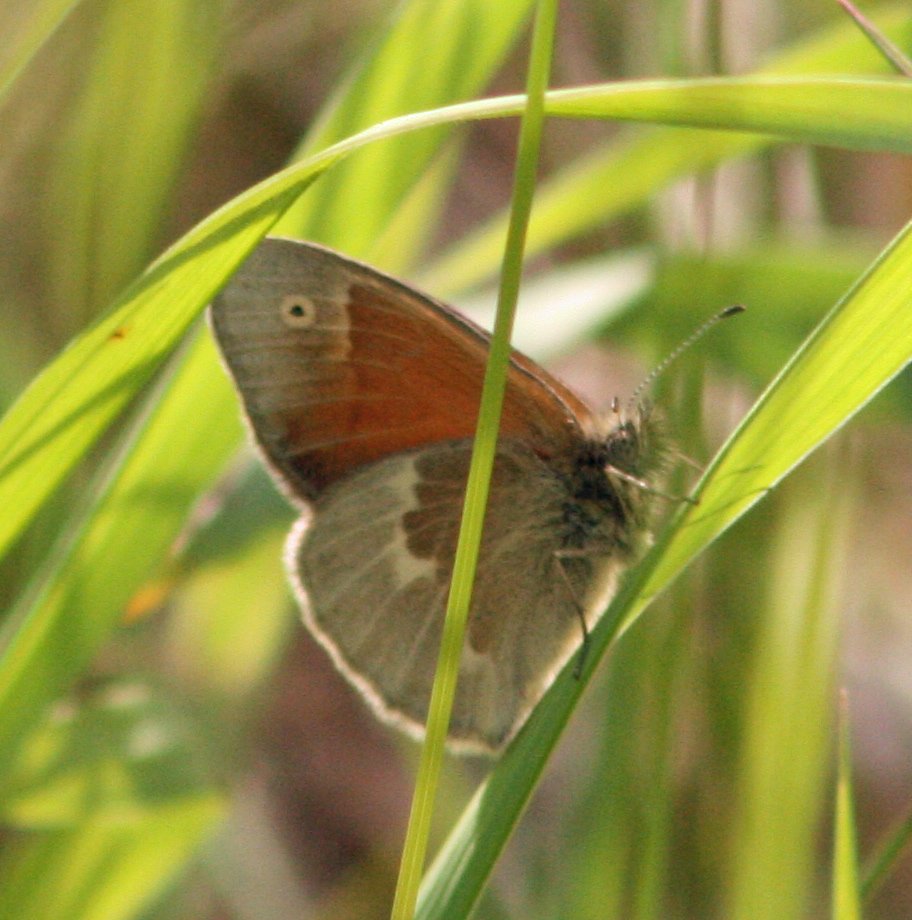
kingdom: Animalia
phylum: Arthropoda
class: Insecta
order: Lepidoptera
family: Nymphalidae
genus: Coenonympha
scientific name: Coenonympha tullia
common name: Large Heath
